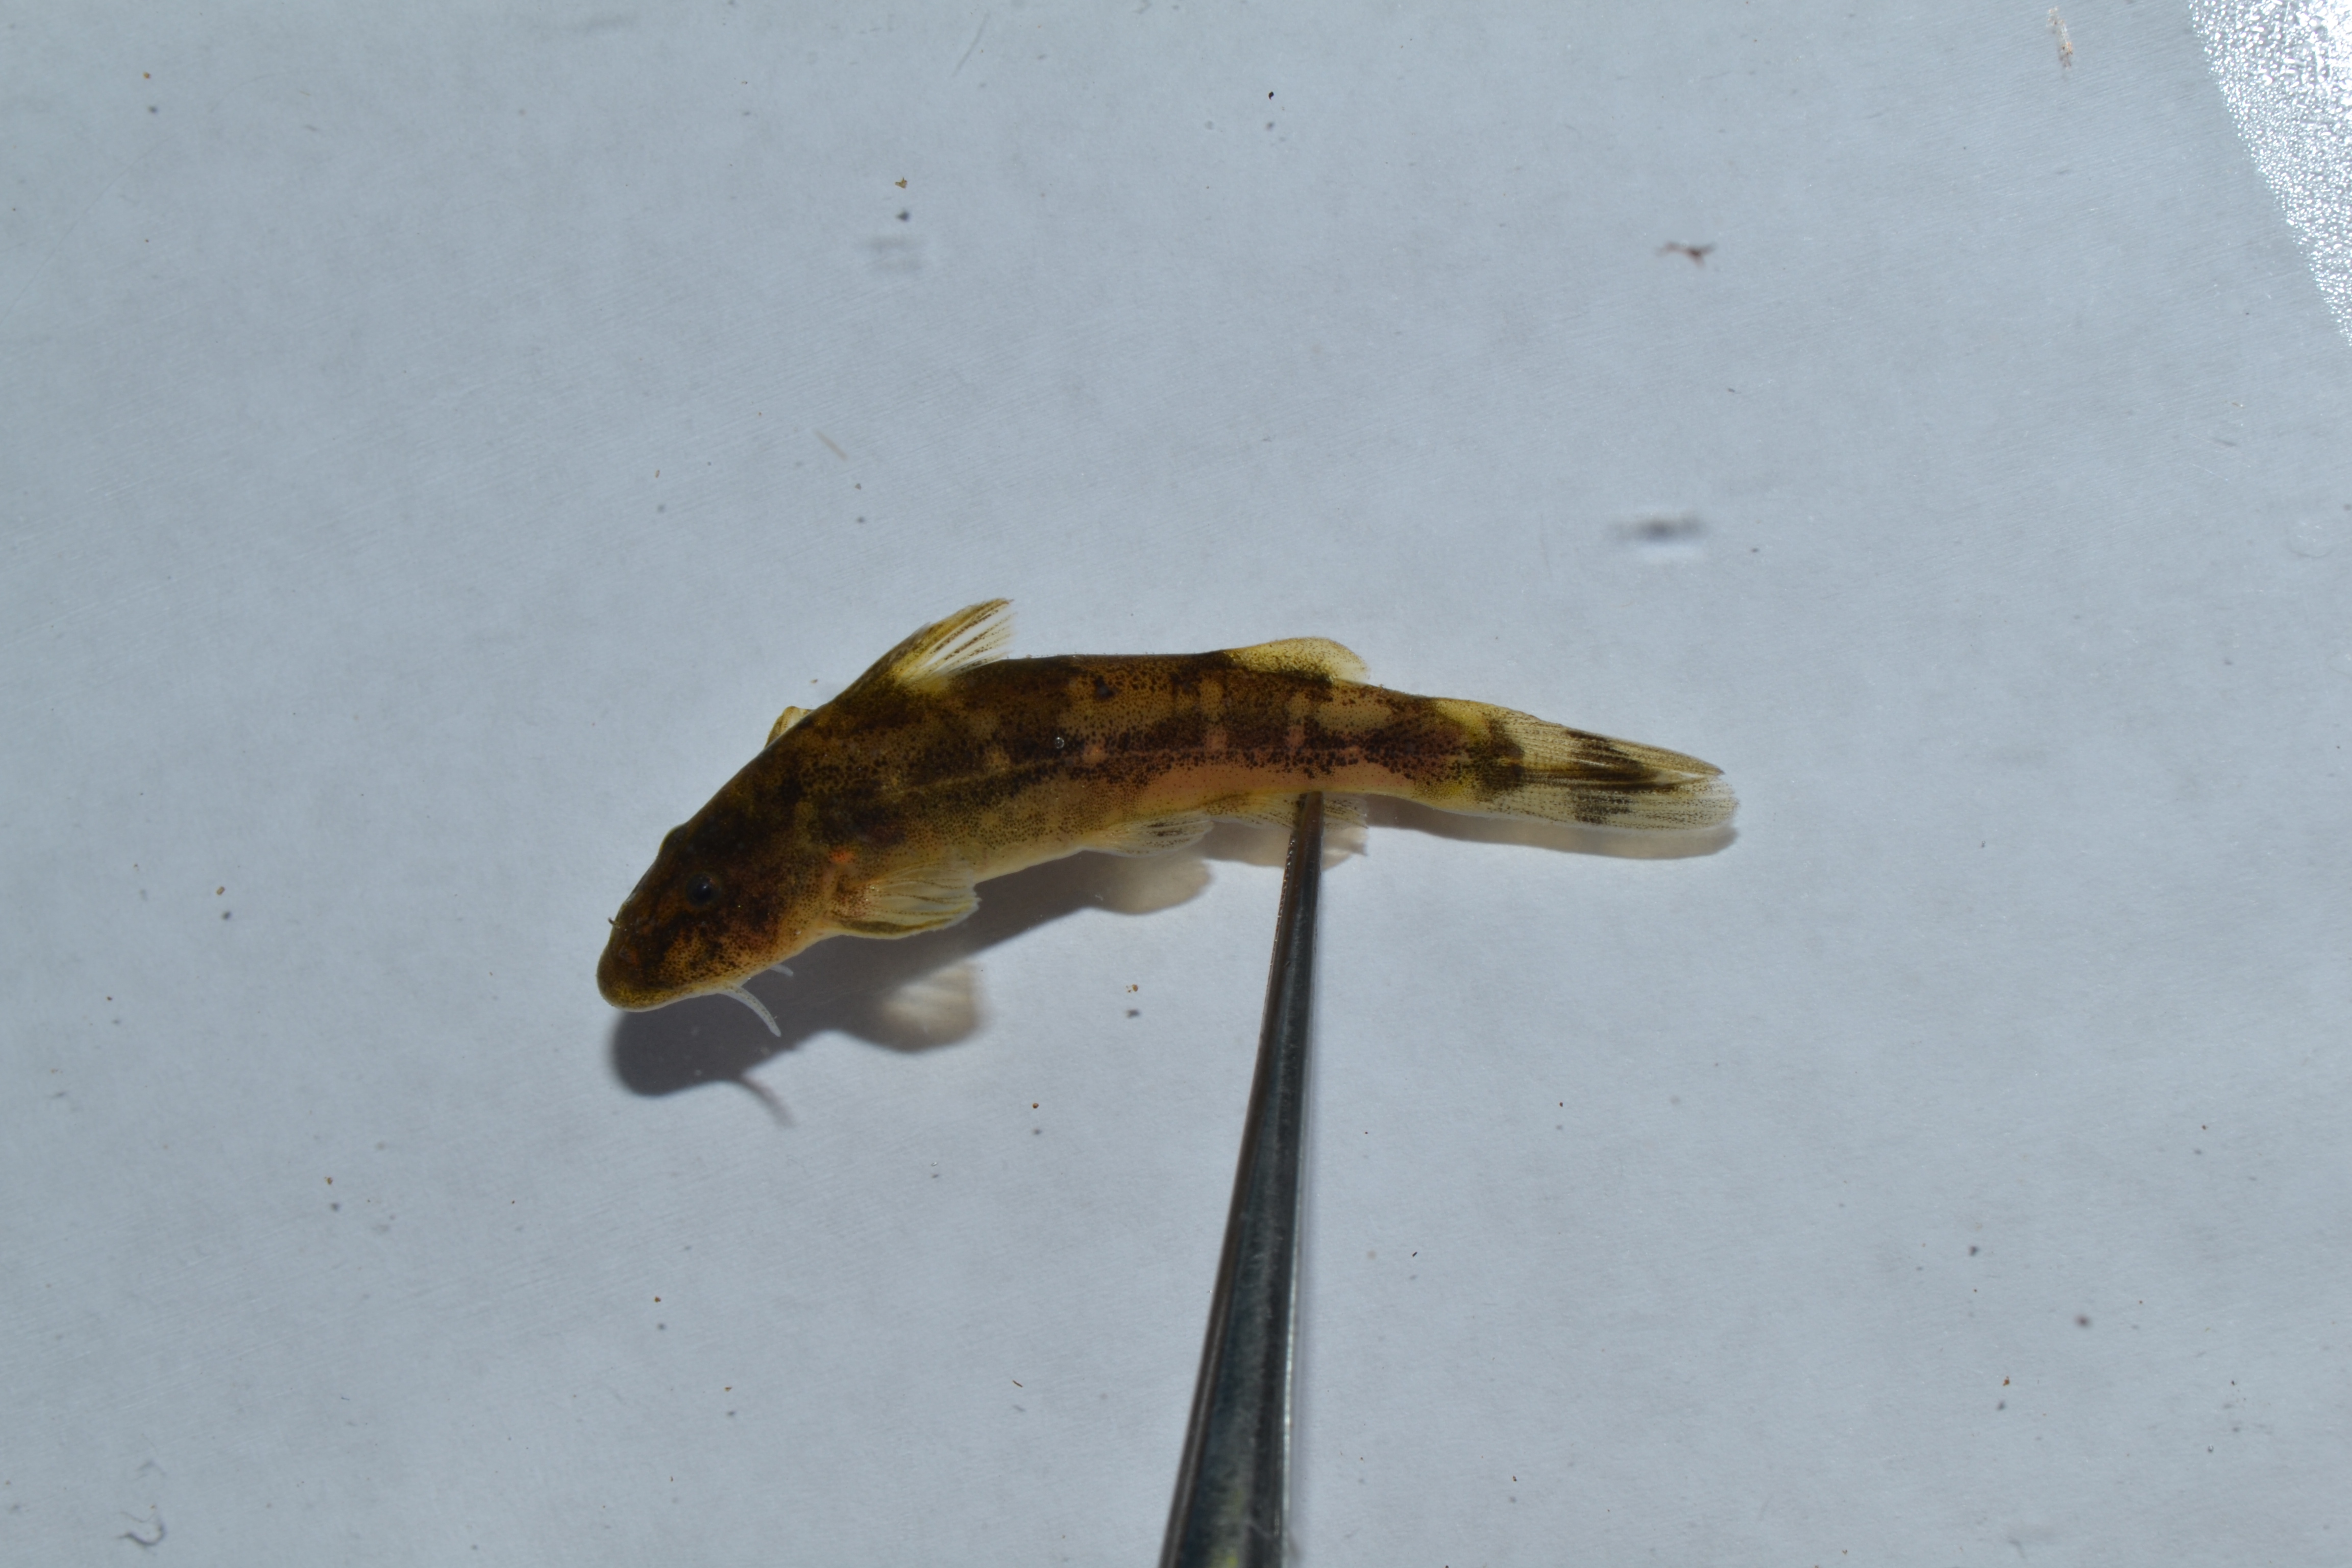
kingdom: Animalia
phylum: Chordata
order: Siluriformes
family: Mochokidae
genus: Chiloglanis
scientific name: Chiloglanis
